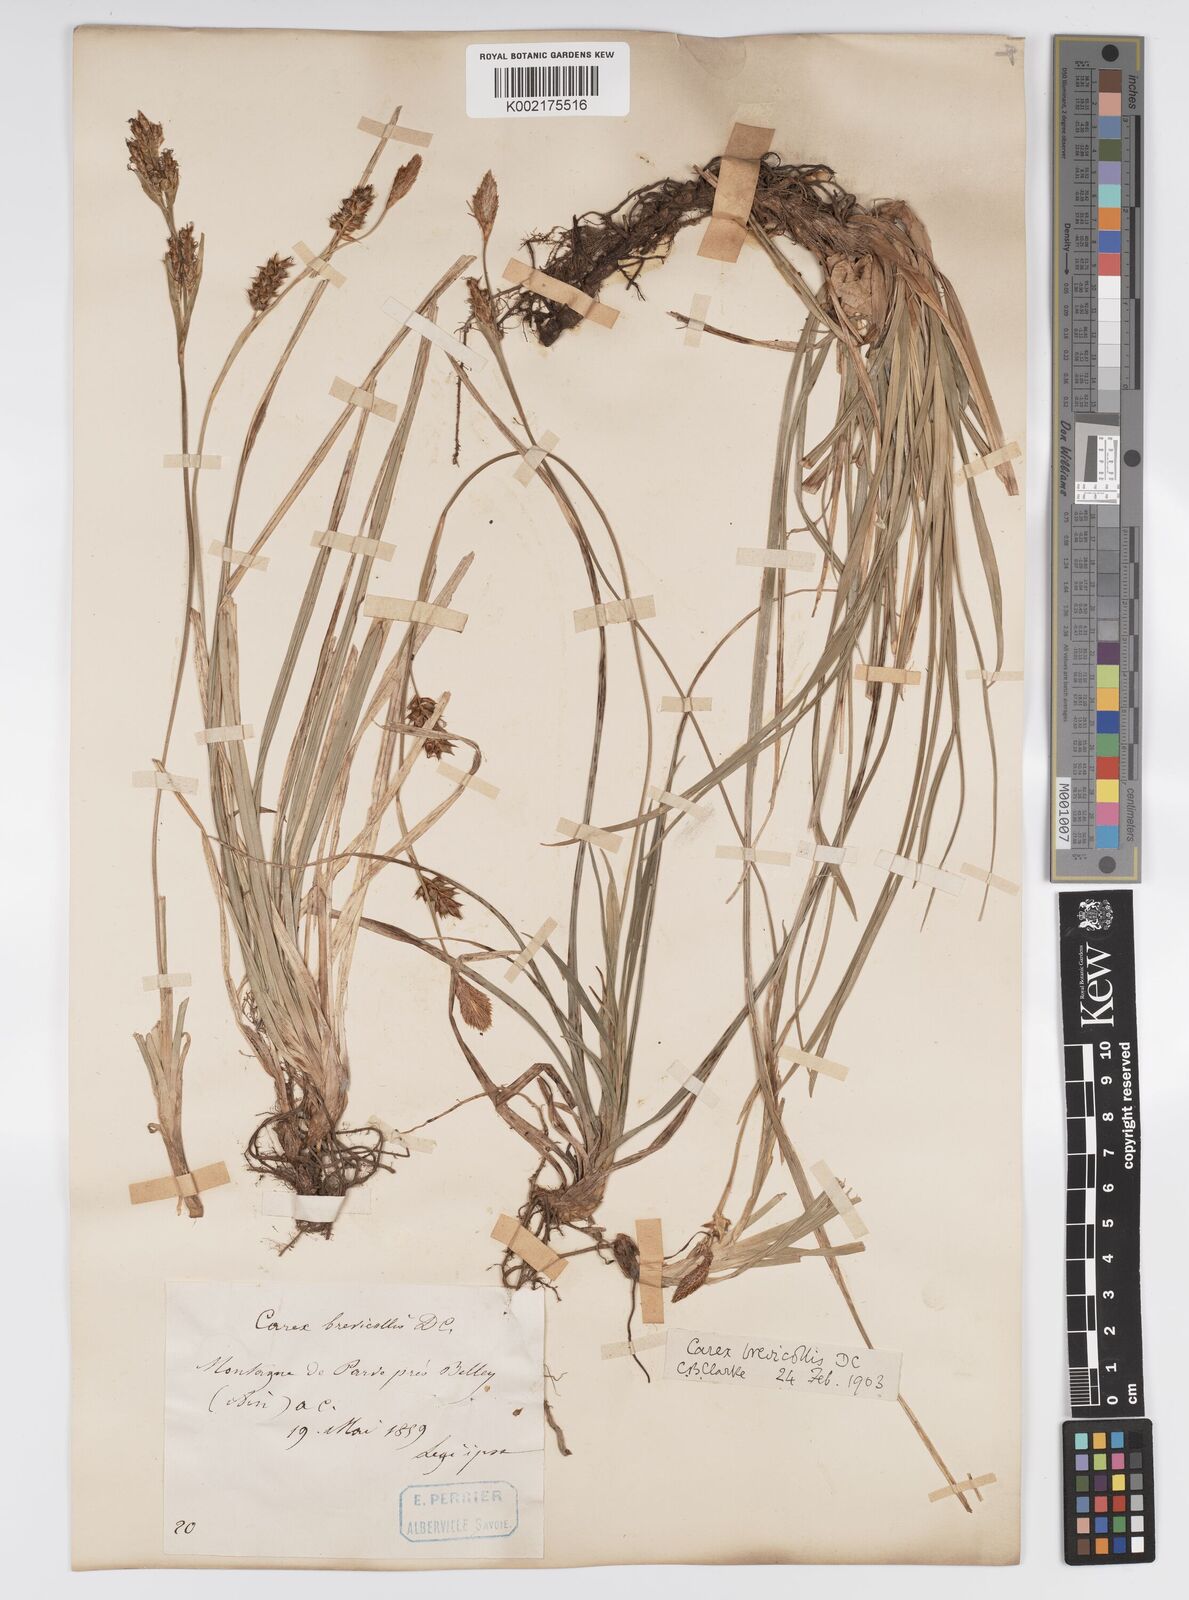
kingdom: Plantae
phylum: Tracheophyta
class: Liliopsida
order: Poales
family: Cyperaceae
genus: Carex
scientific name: Carex brevicollis
